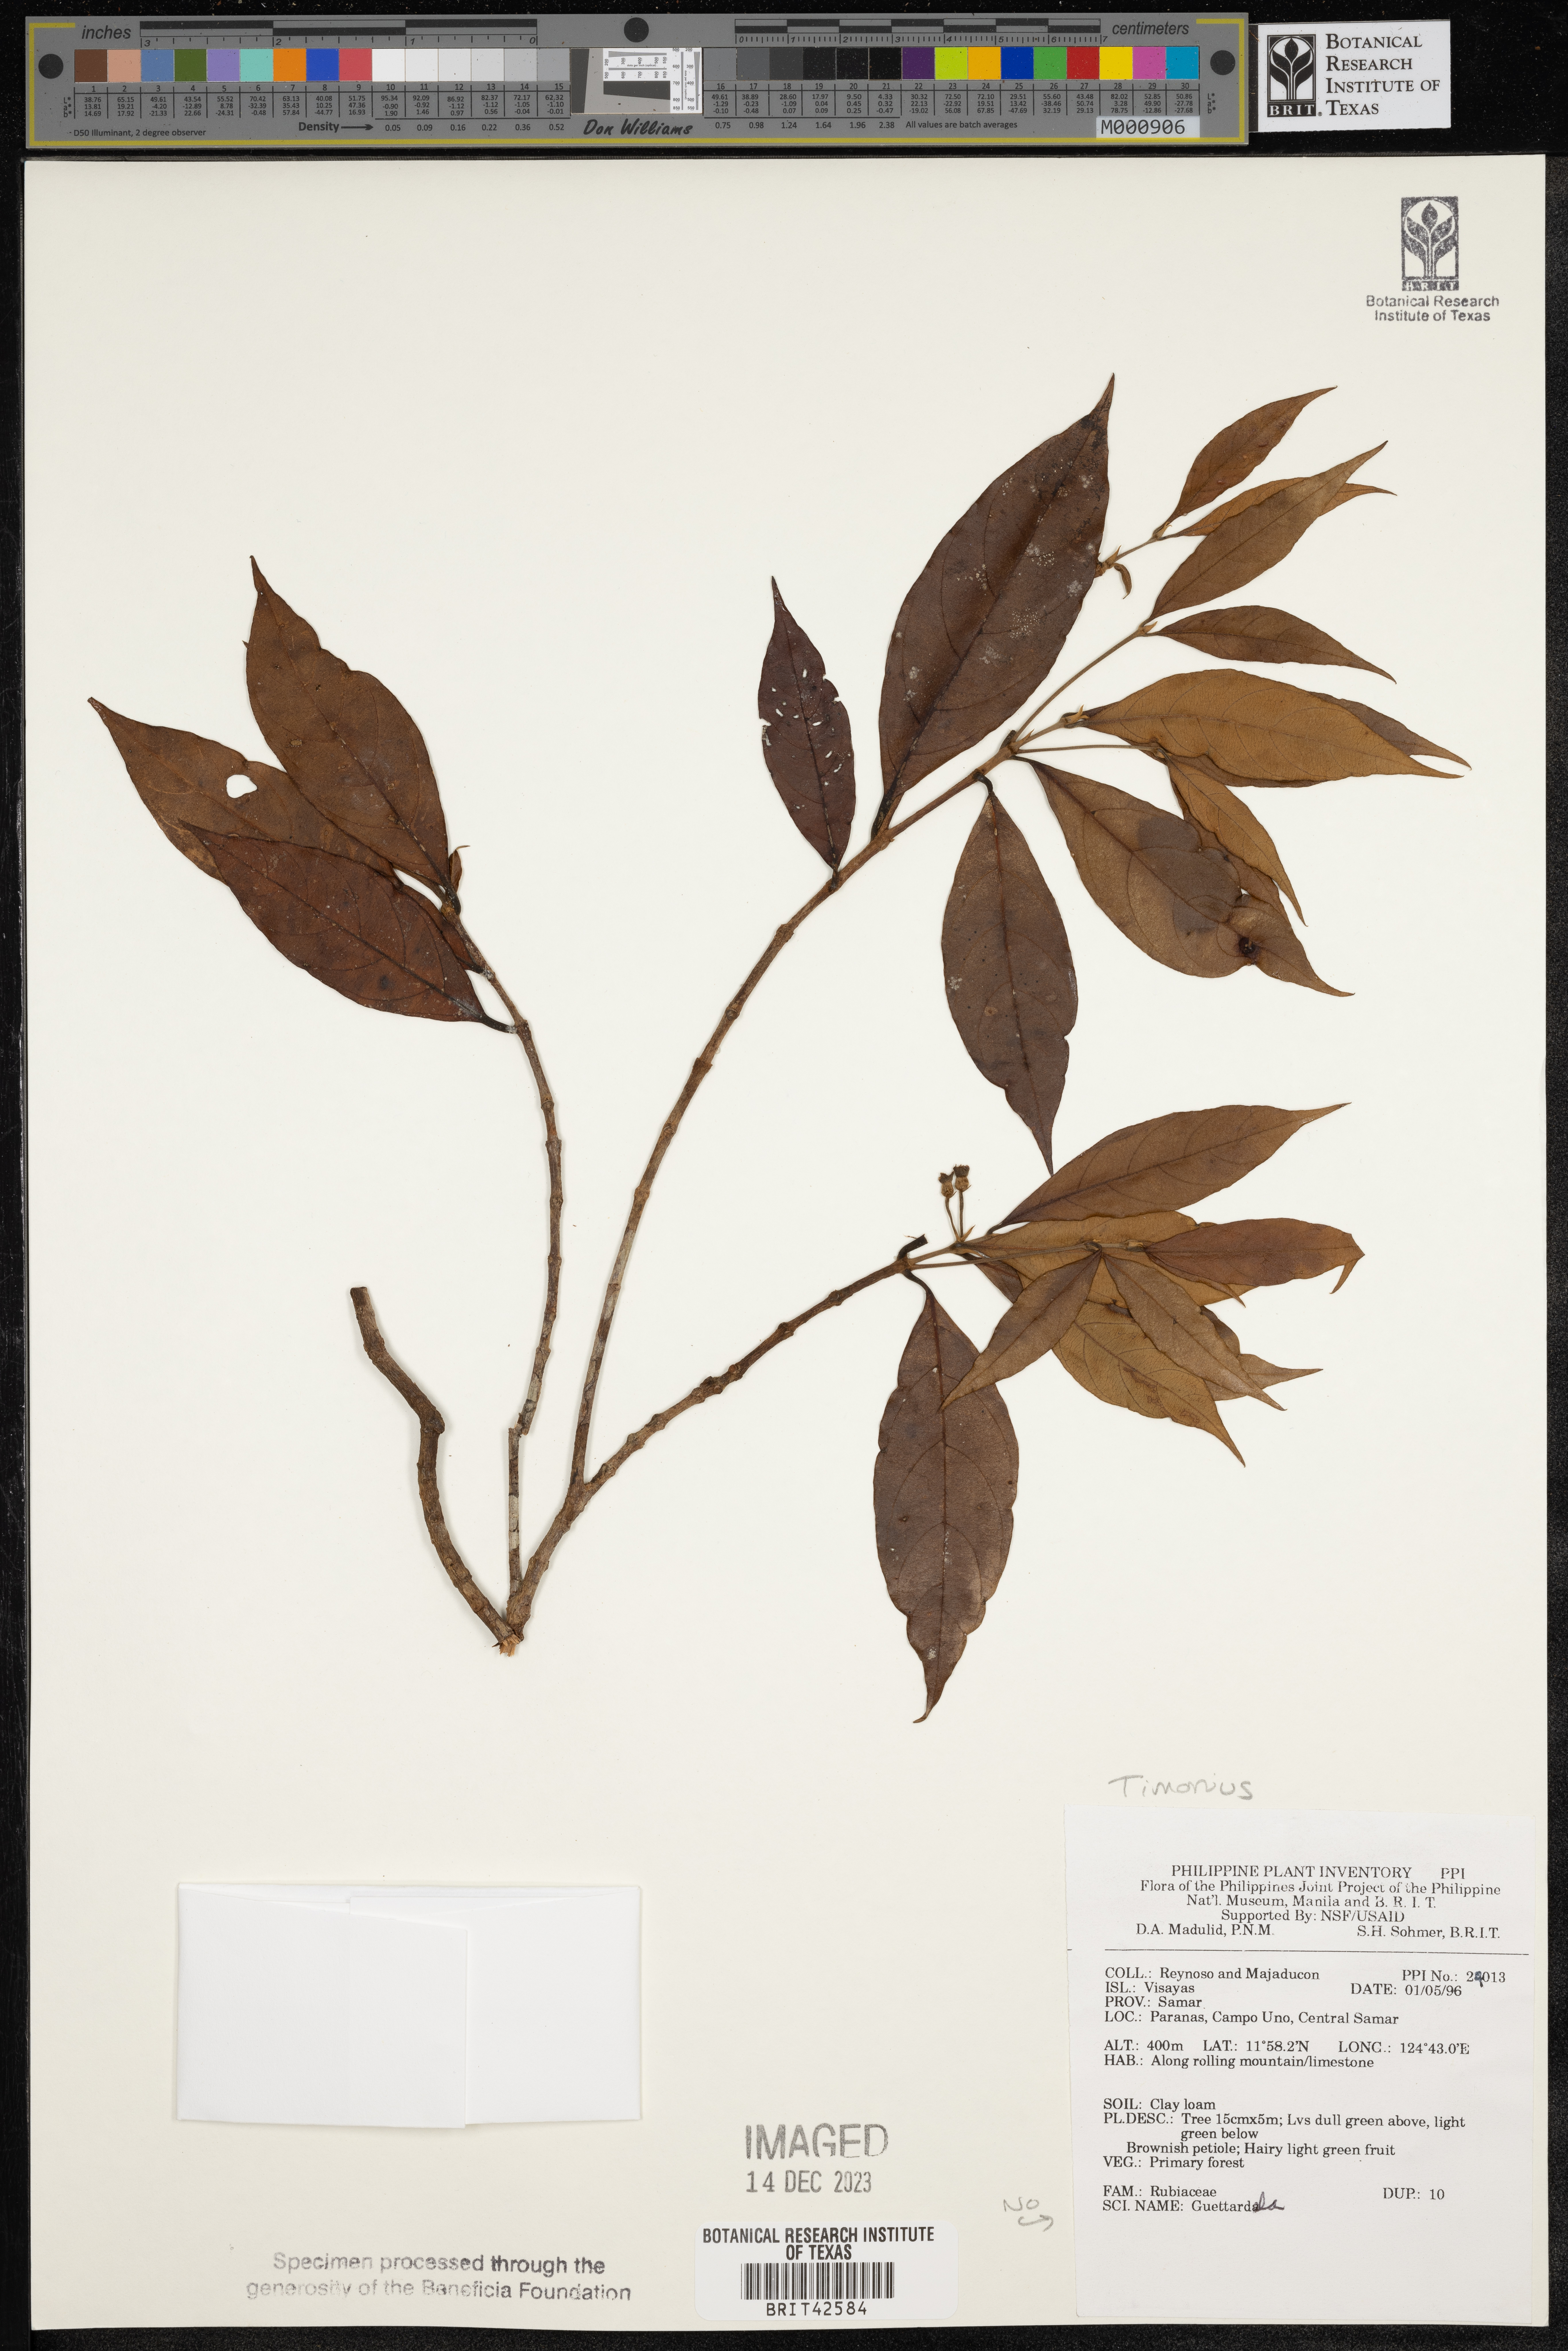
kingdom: Plantae
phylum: Tracheophyta
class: Magnoliopsida
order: Gentianales
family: Rubiaceae
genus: Timonius
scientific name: Timonius
